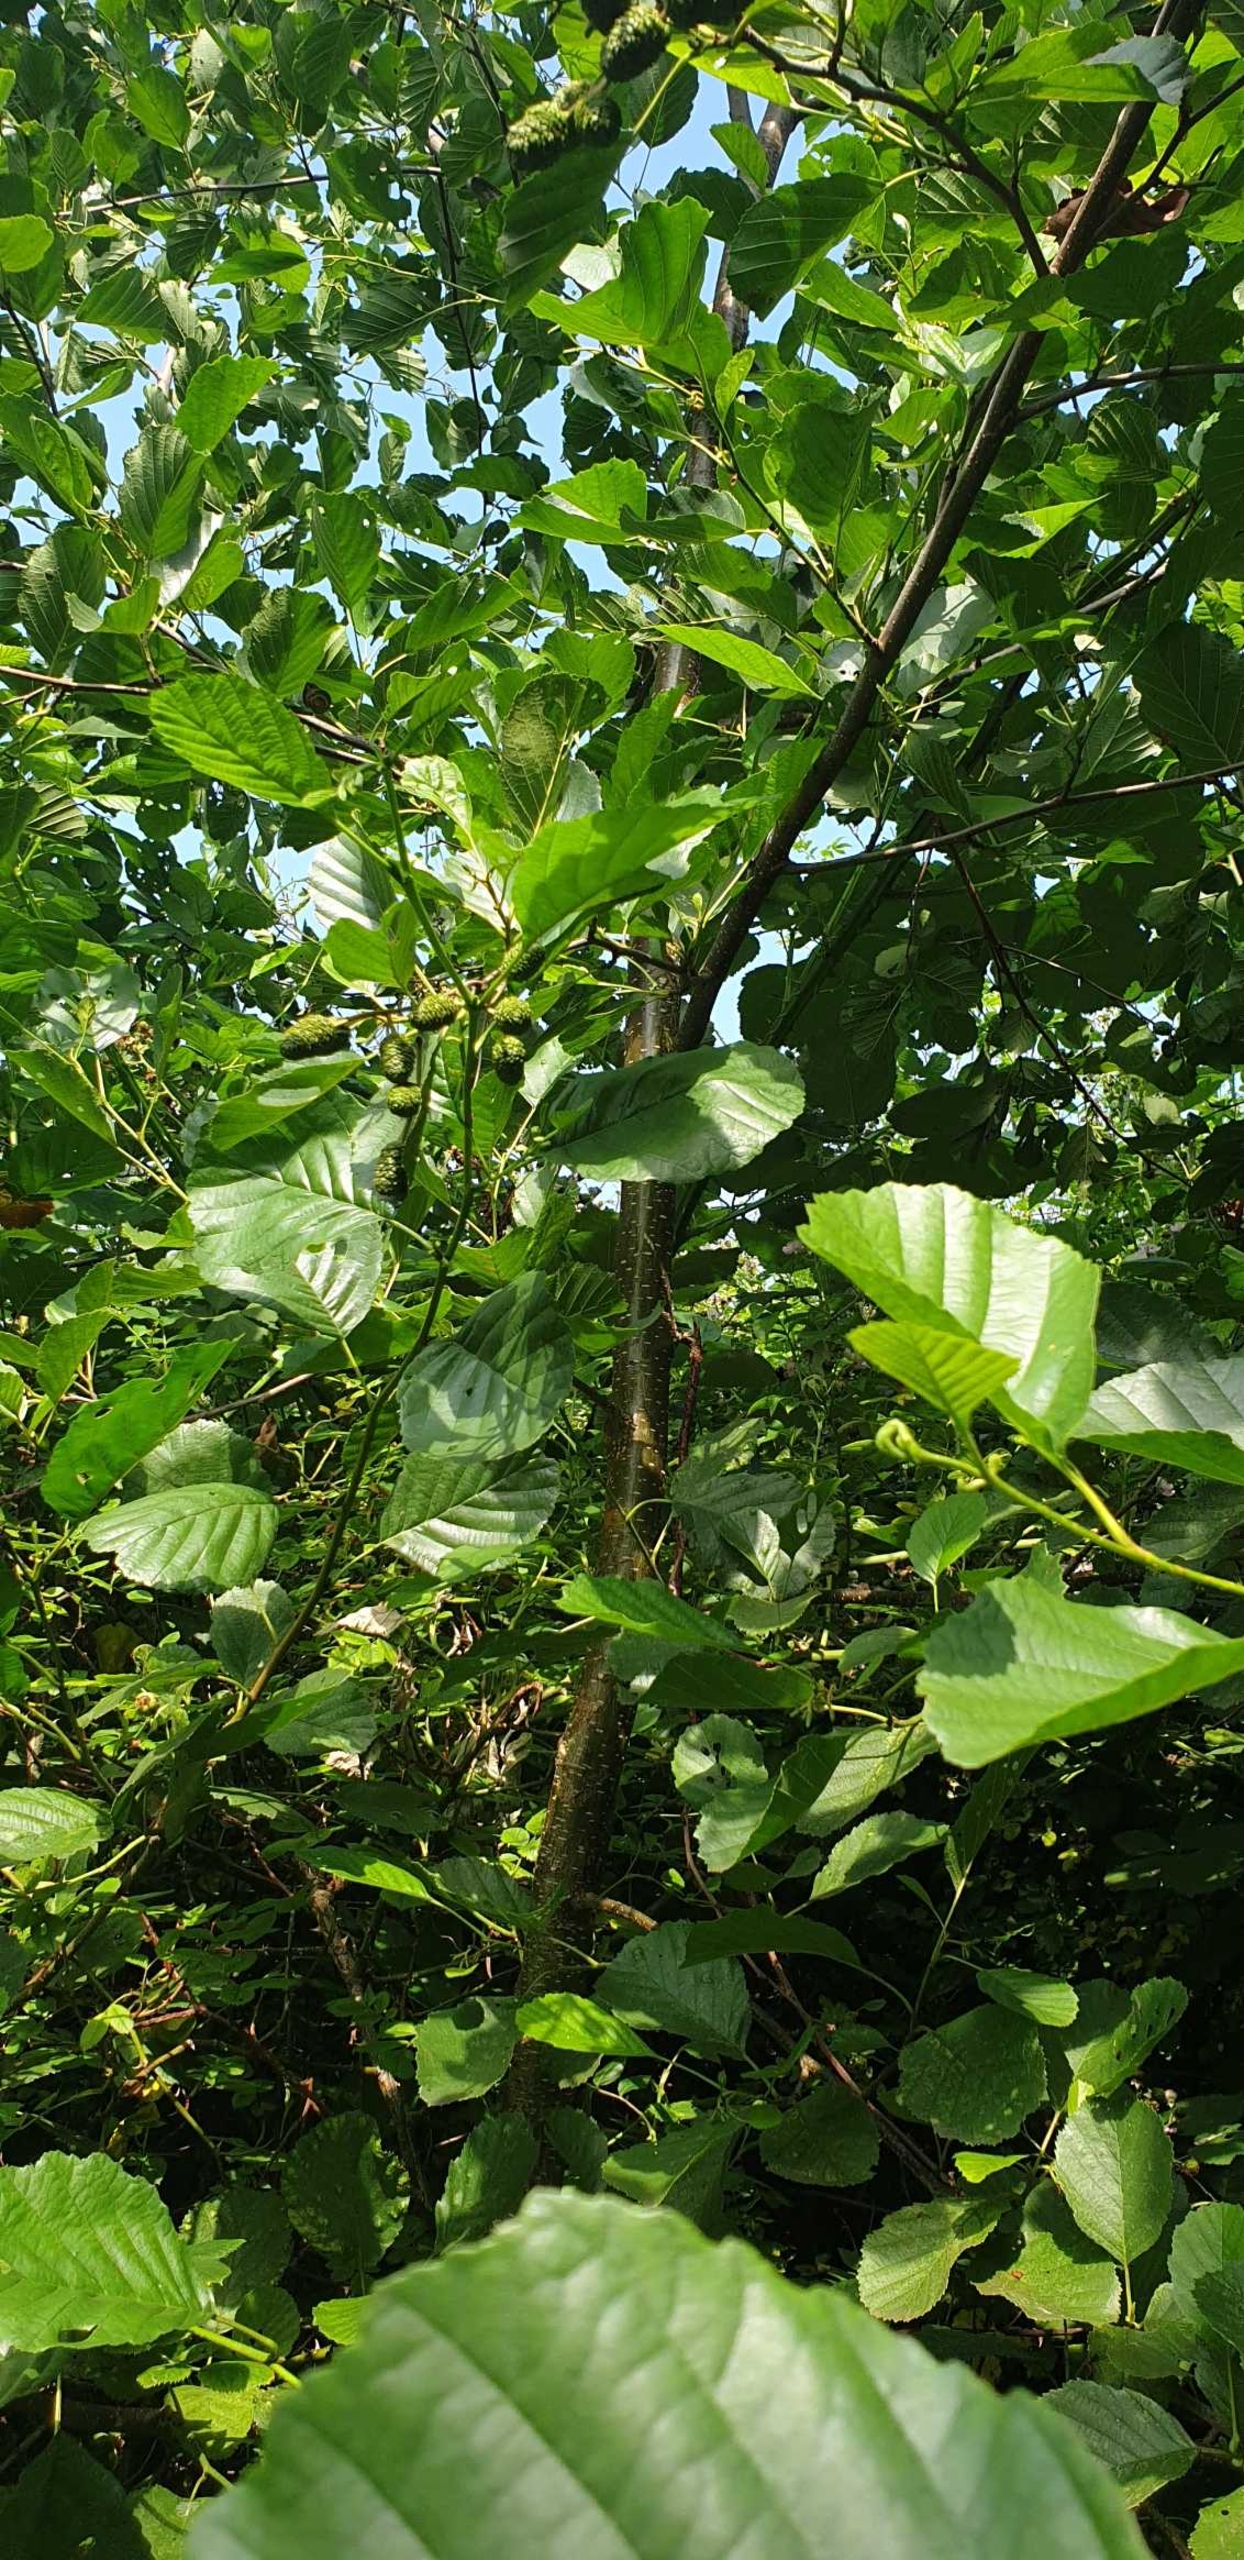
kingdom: Plantae
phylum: Tracheophyta
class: Magnoliopsida
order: Fagales
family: Betulaceae
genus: Alnus
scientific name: Alnus glutinosa
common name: Rød-el
